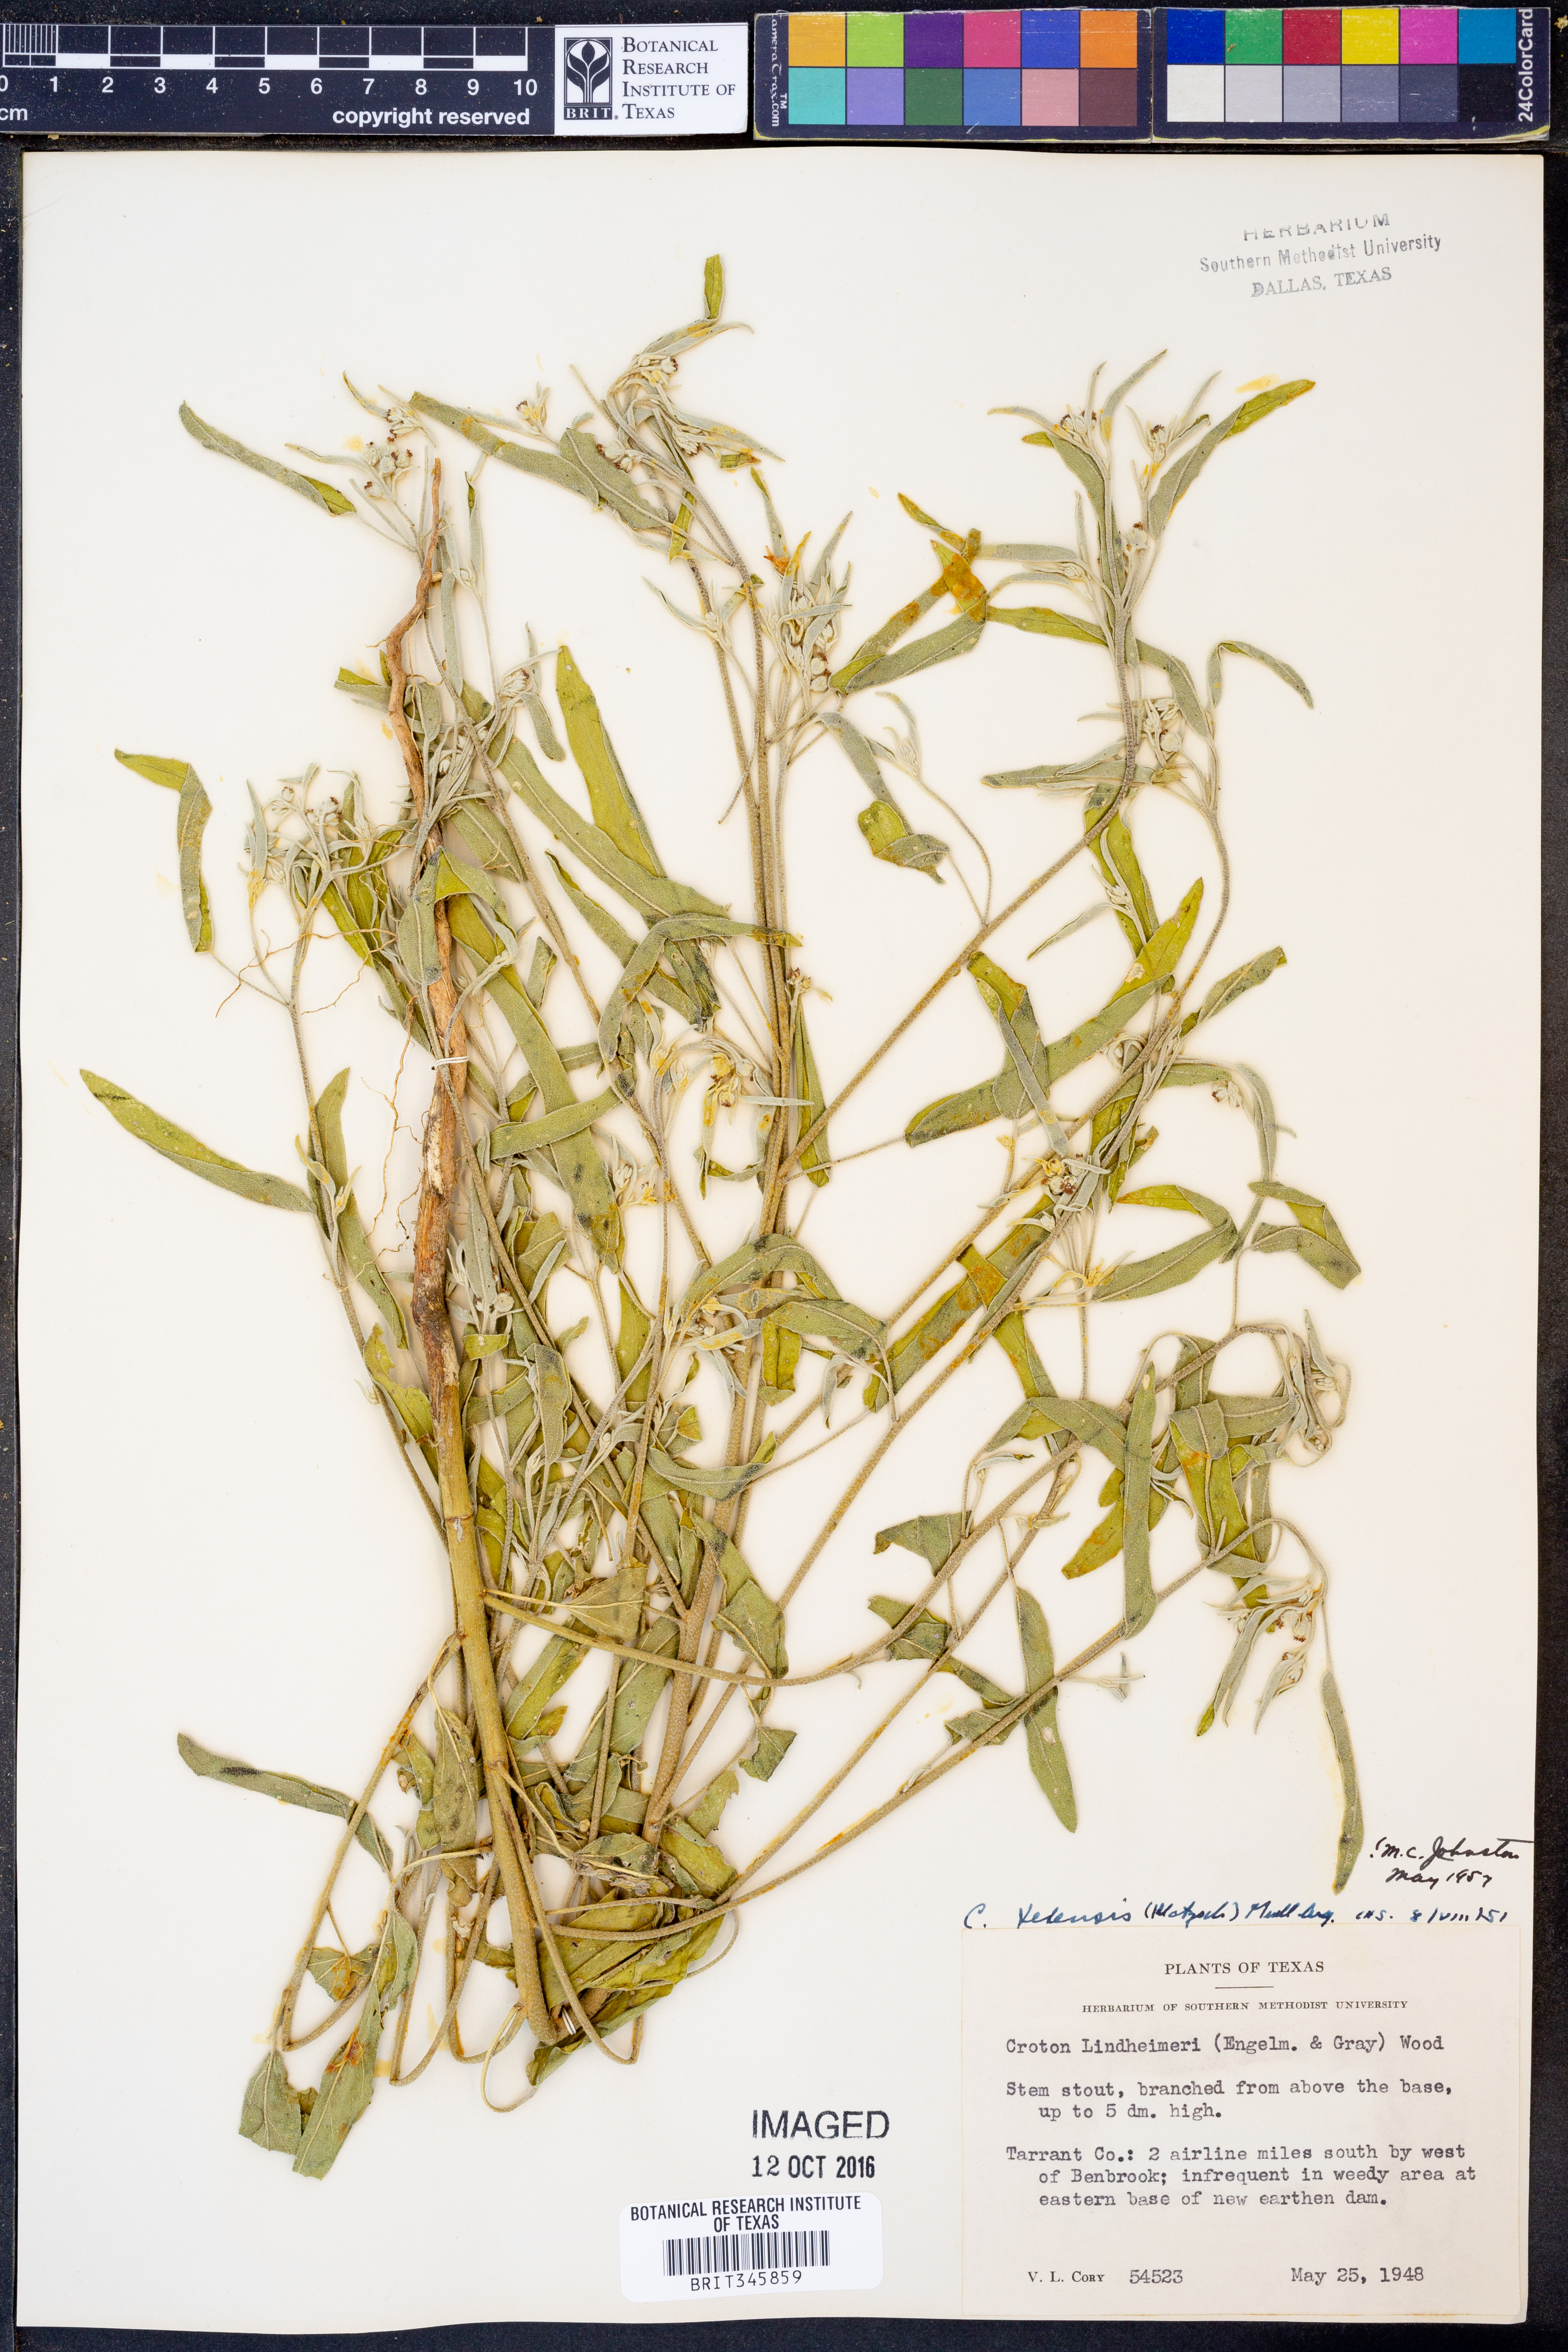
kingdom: Plantae
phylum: Tracheophyta
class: Magnoliopsida
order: Malpighiales
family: Euphorbiaceae
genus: Croton
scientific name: Croton texensis
